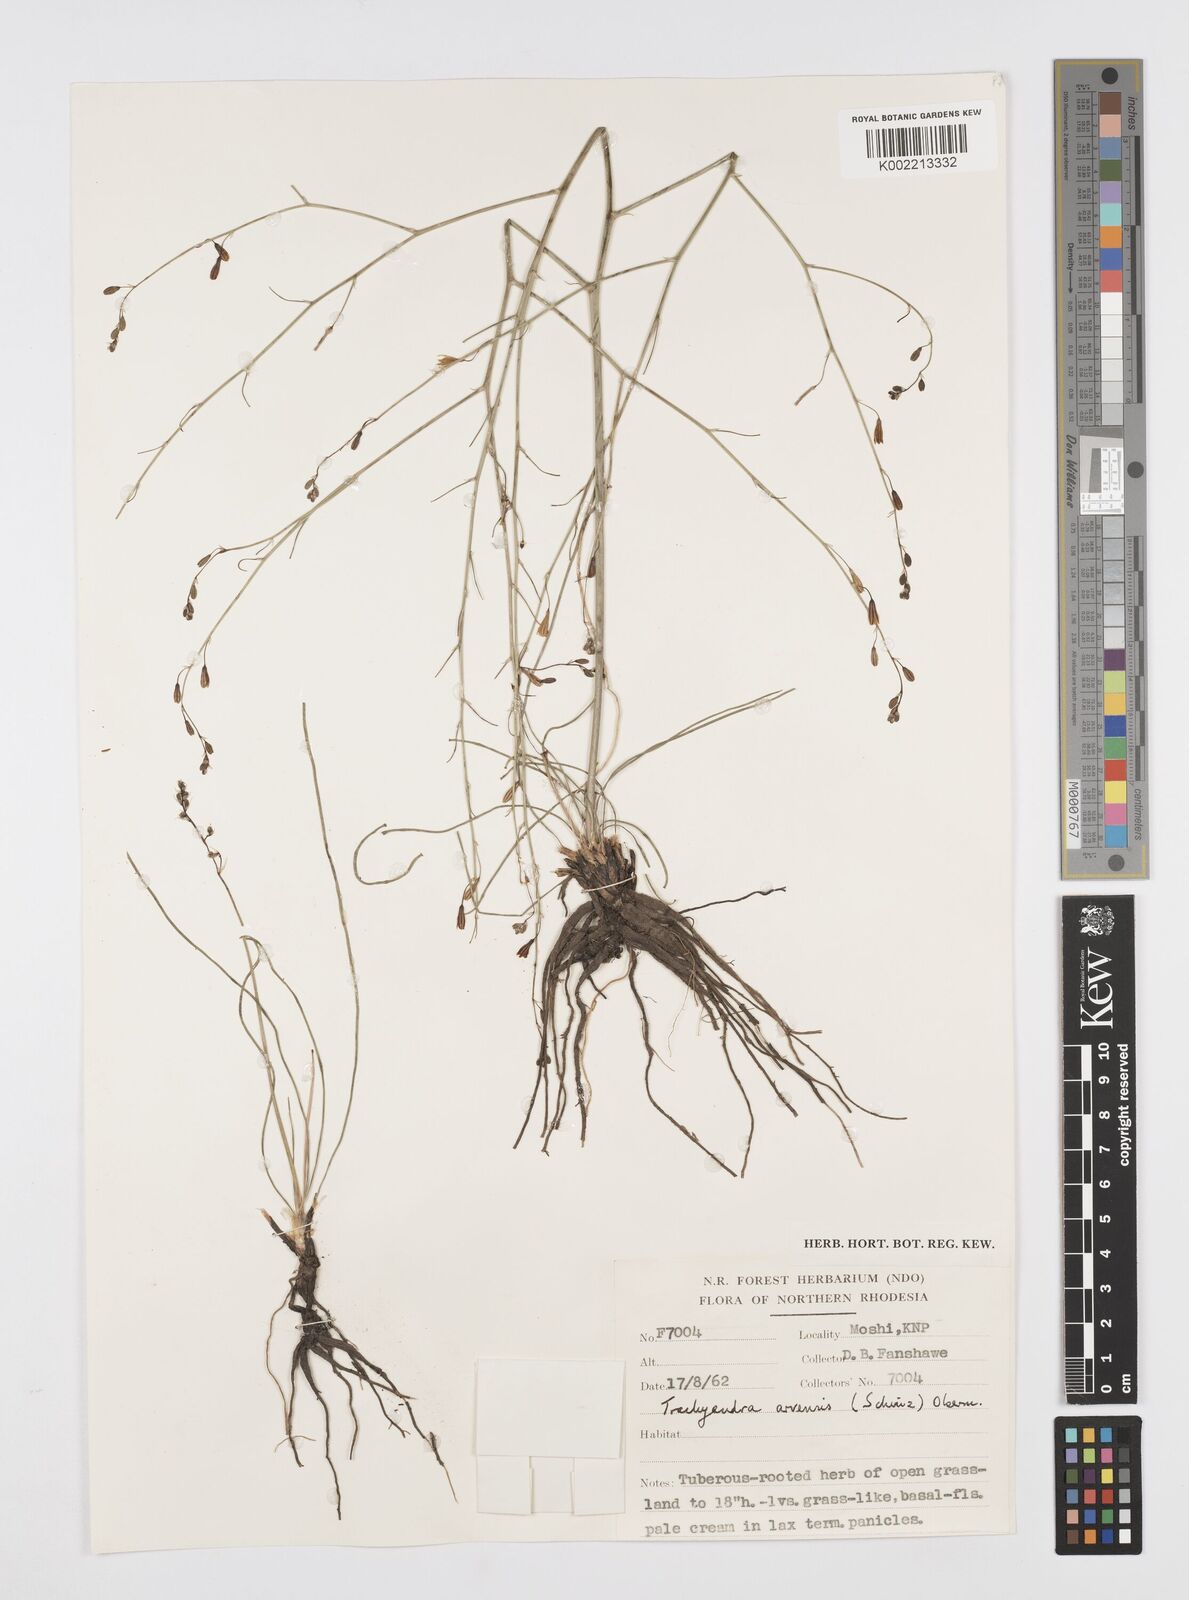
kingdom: Plantae
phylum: Tracheophyta
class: Liliopsida
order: Asparagales
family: Asphodelaceae
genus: Trachyandra
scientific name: Trachyandra arvensis
